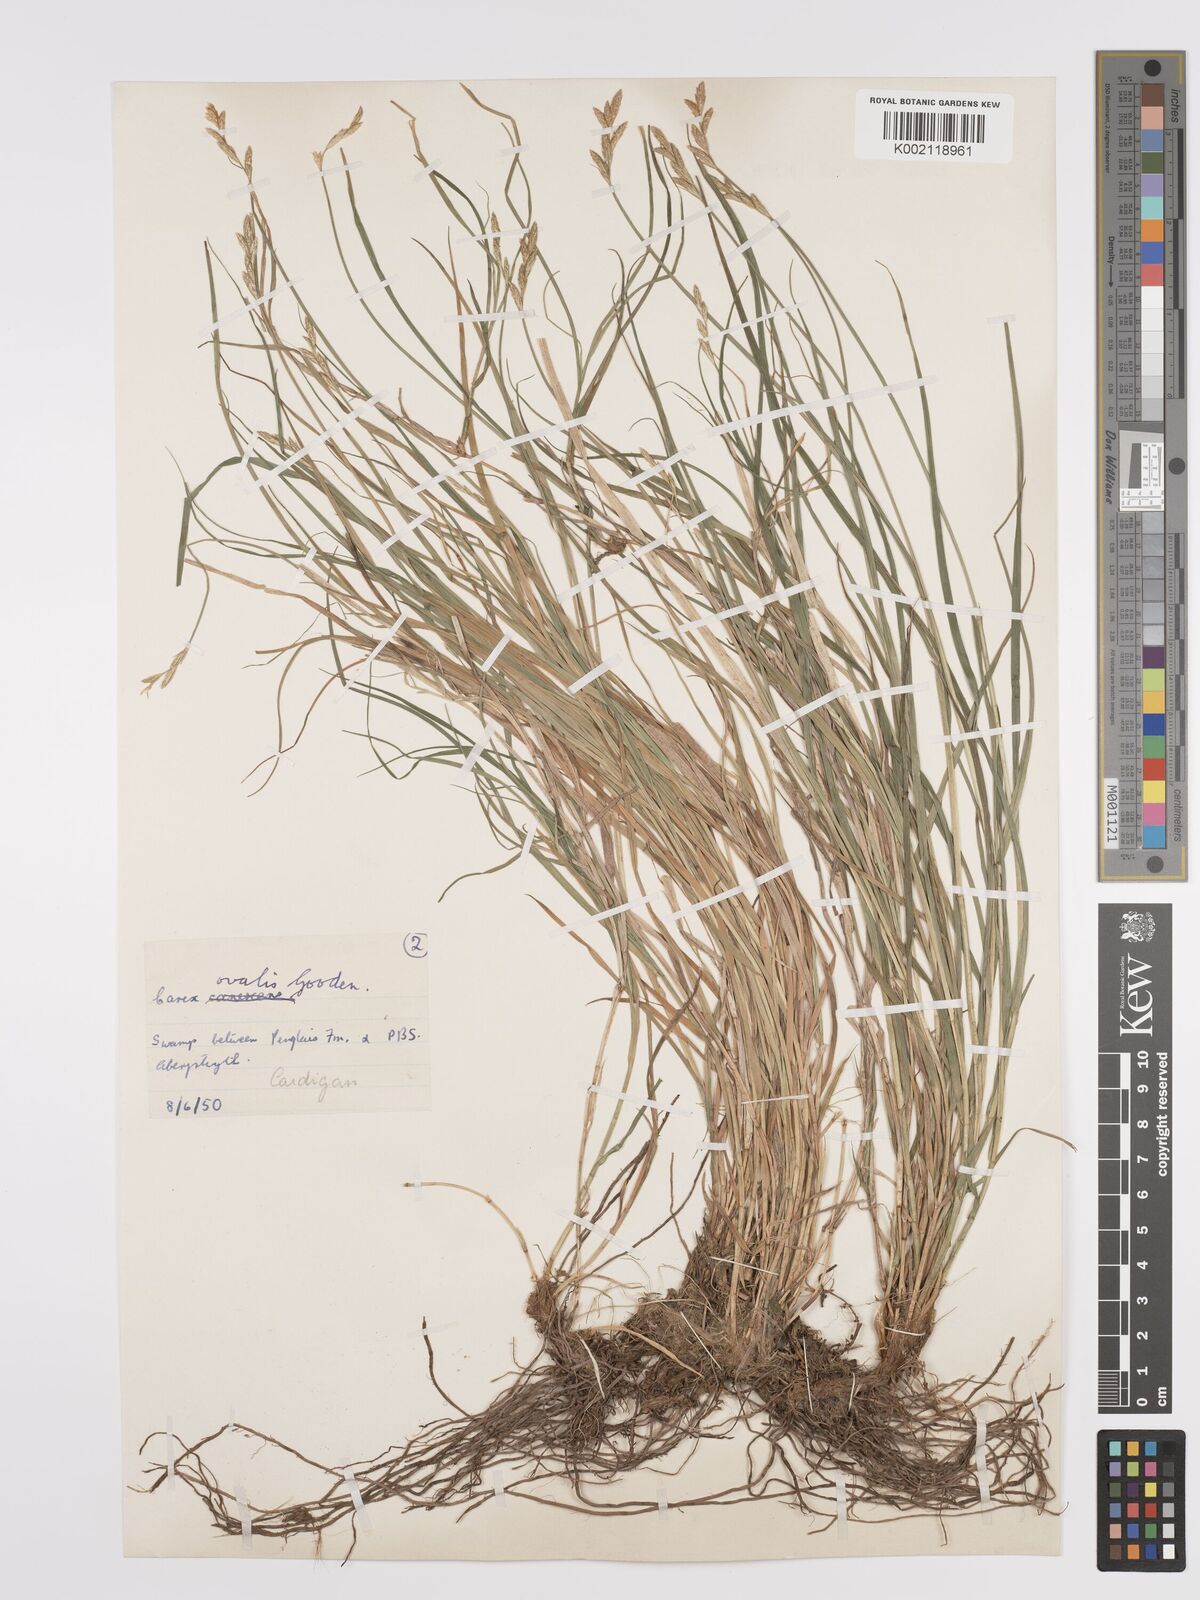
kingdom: Plantae
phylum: Tracheophyta
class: Liliopsida
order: Poales
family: Cyperaceae
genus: Carex
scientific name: Carex leporina
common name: Oval sedge
